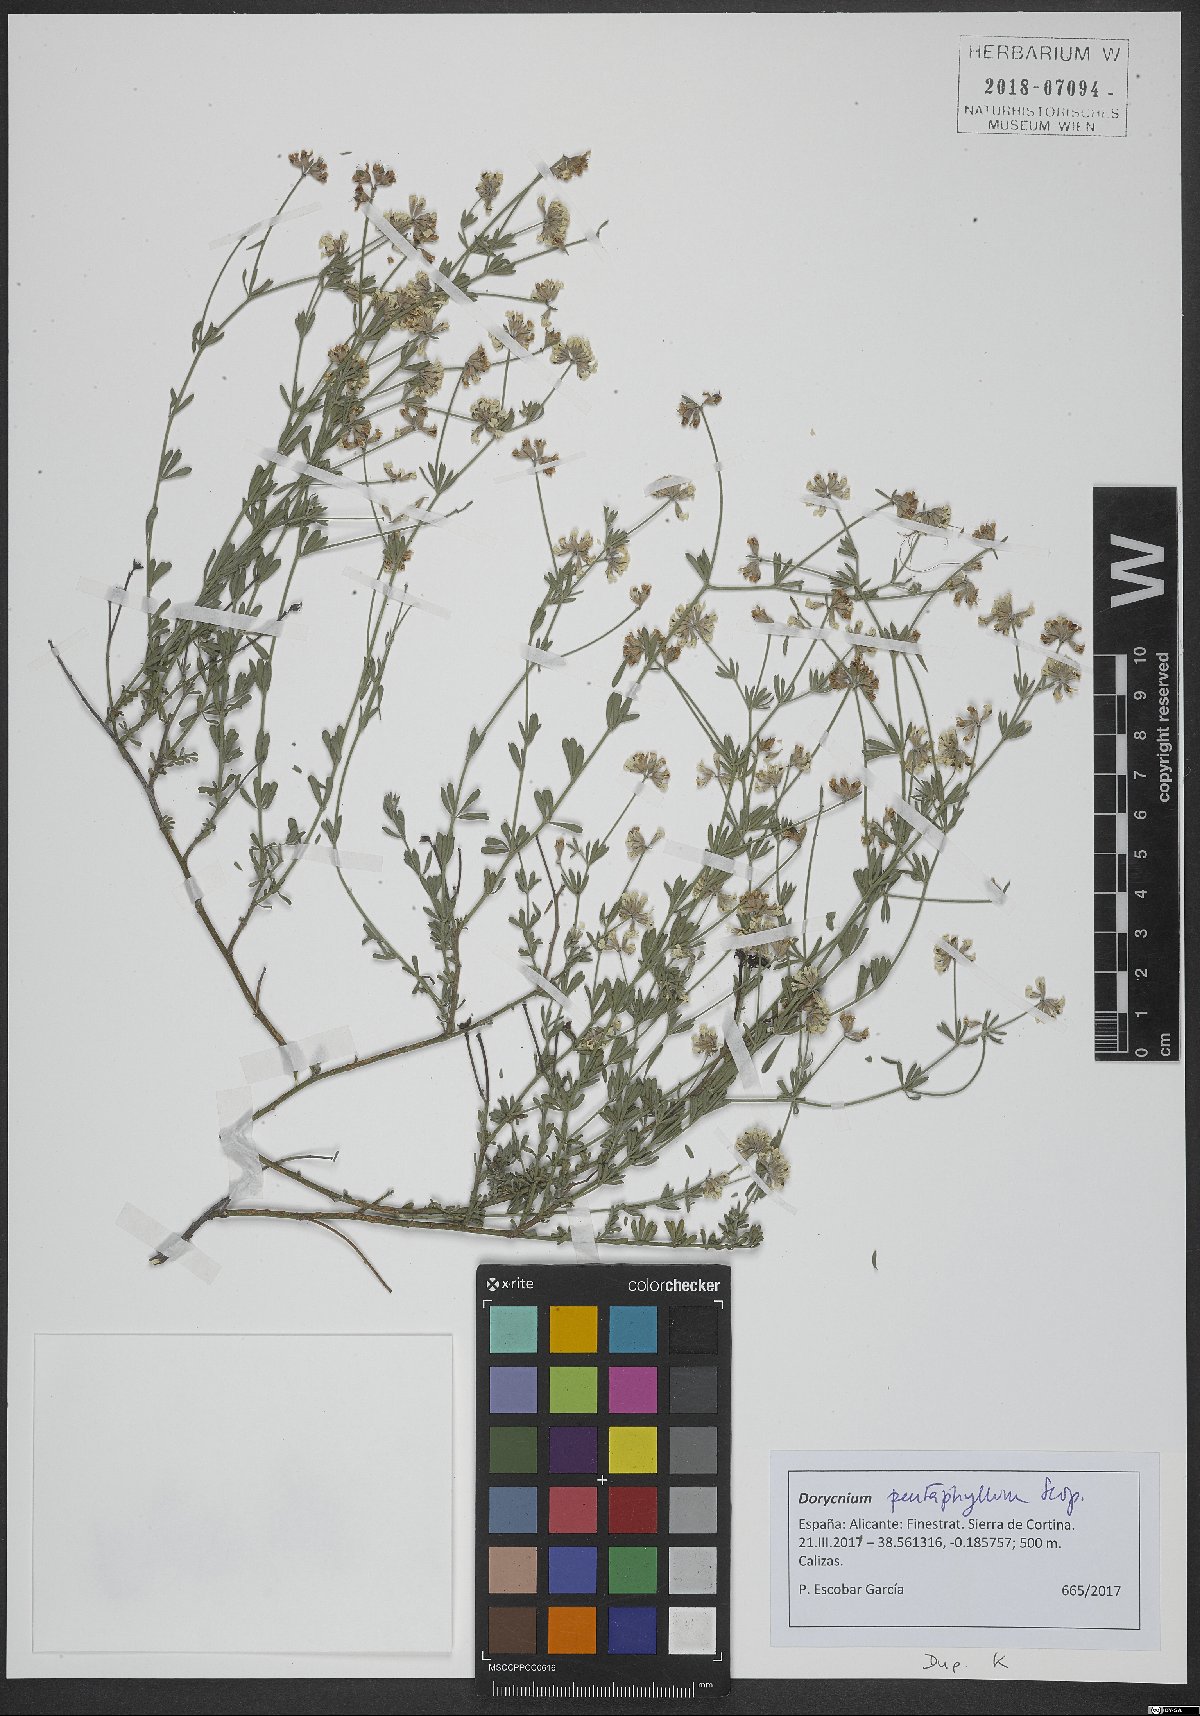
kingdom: Plantae
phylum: Tracheophyta
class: Magnoliopsida
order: Fabales
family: Fabaceae
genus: Lotus
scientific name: Lotus dorycnium
